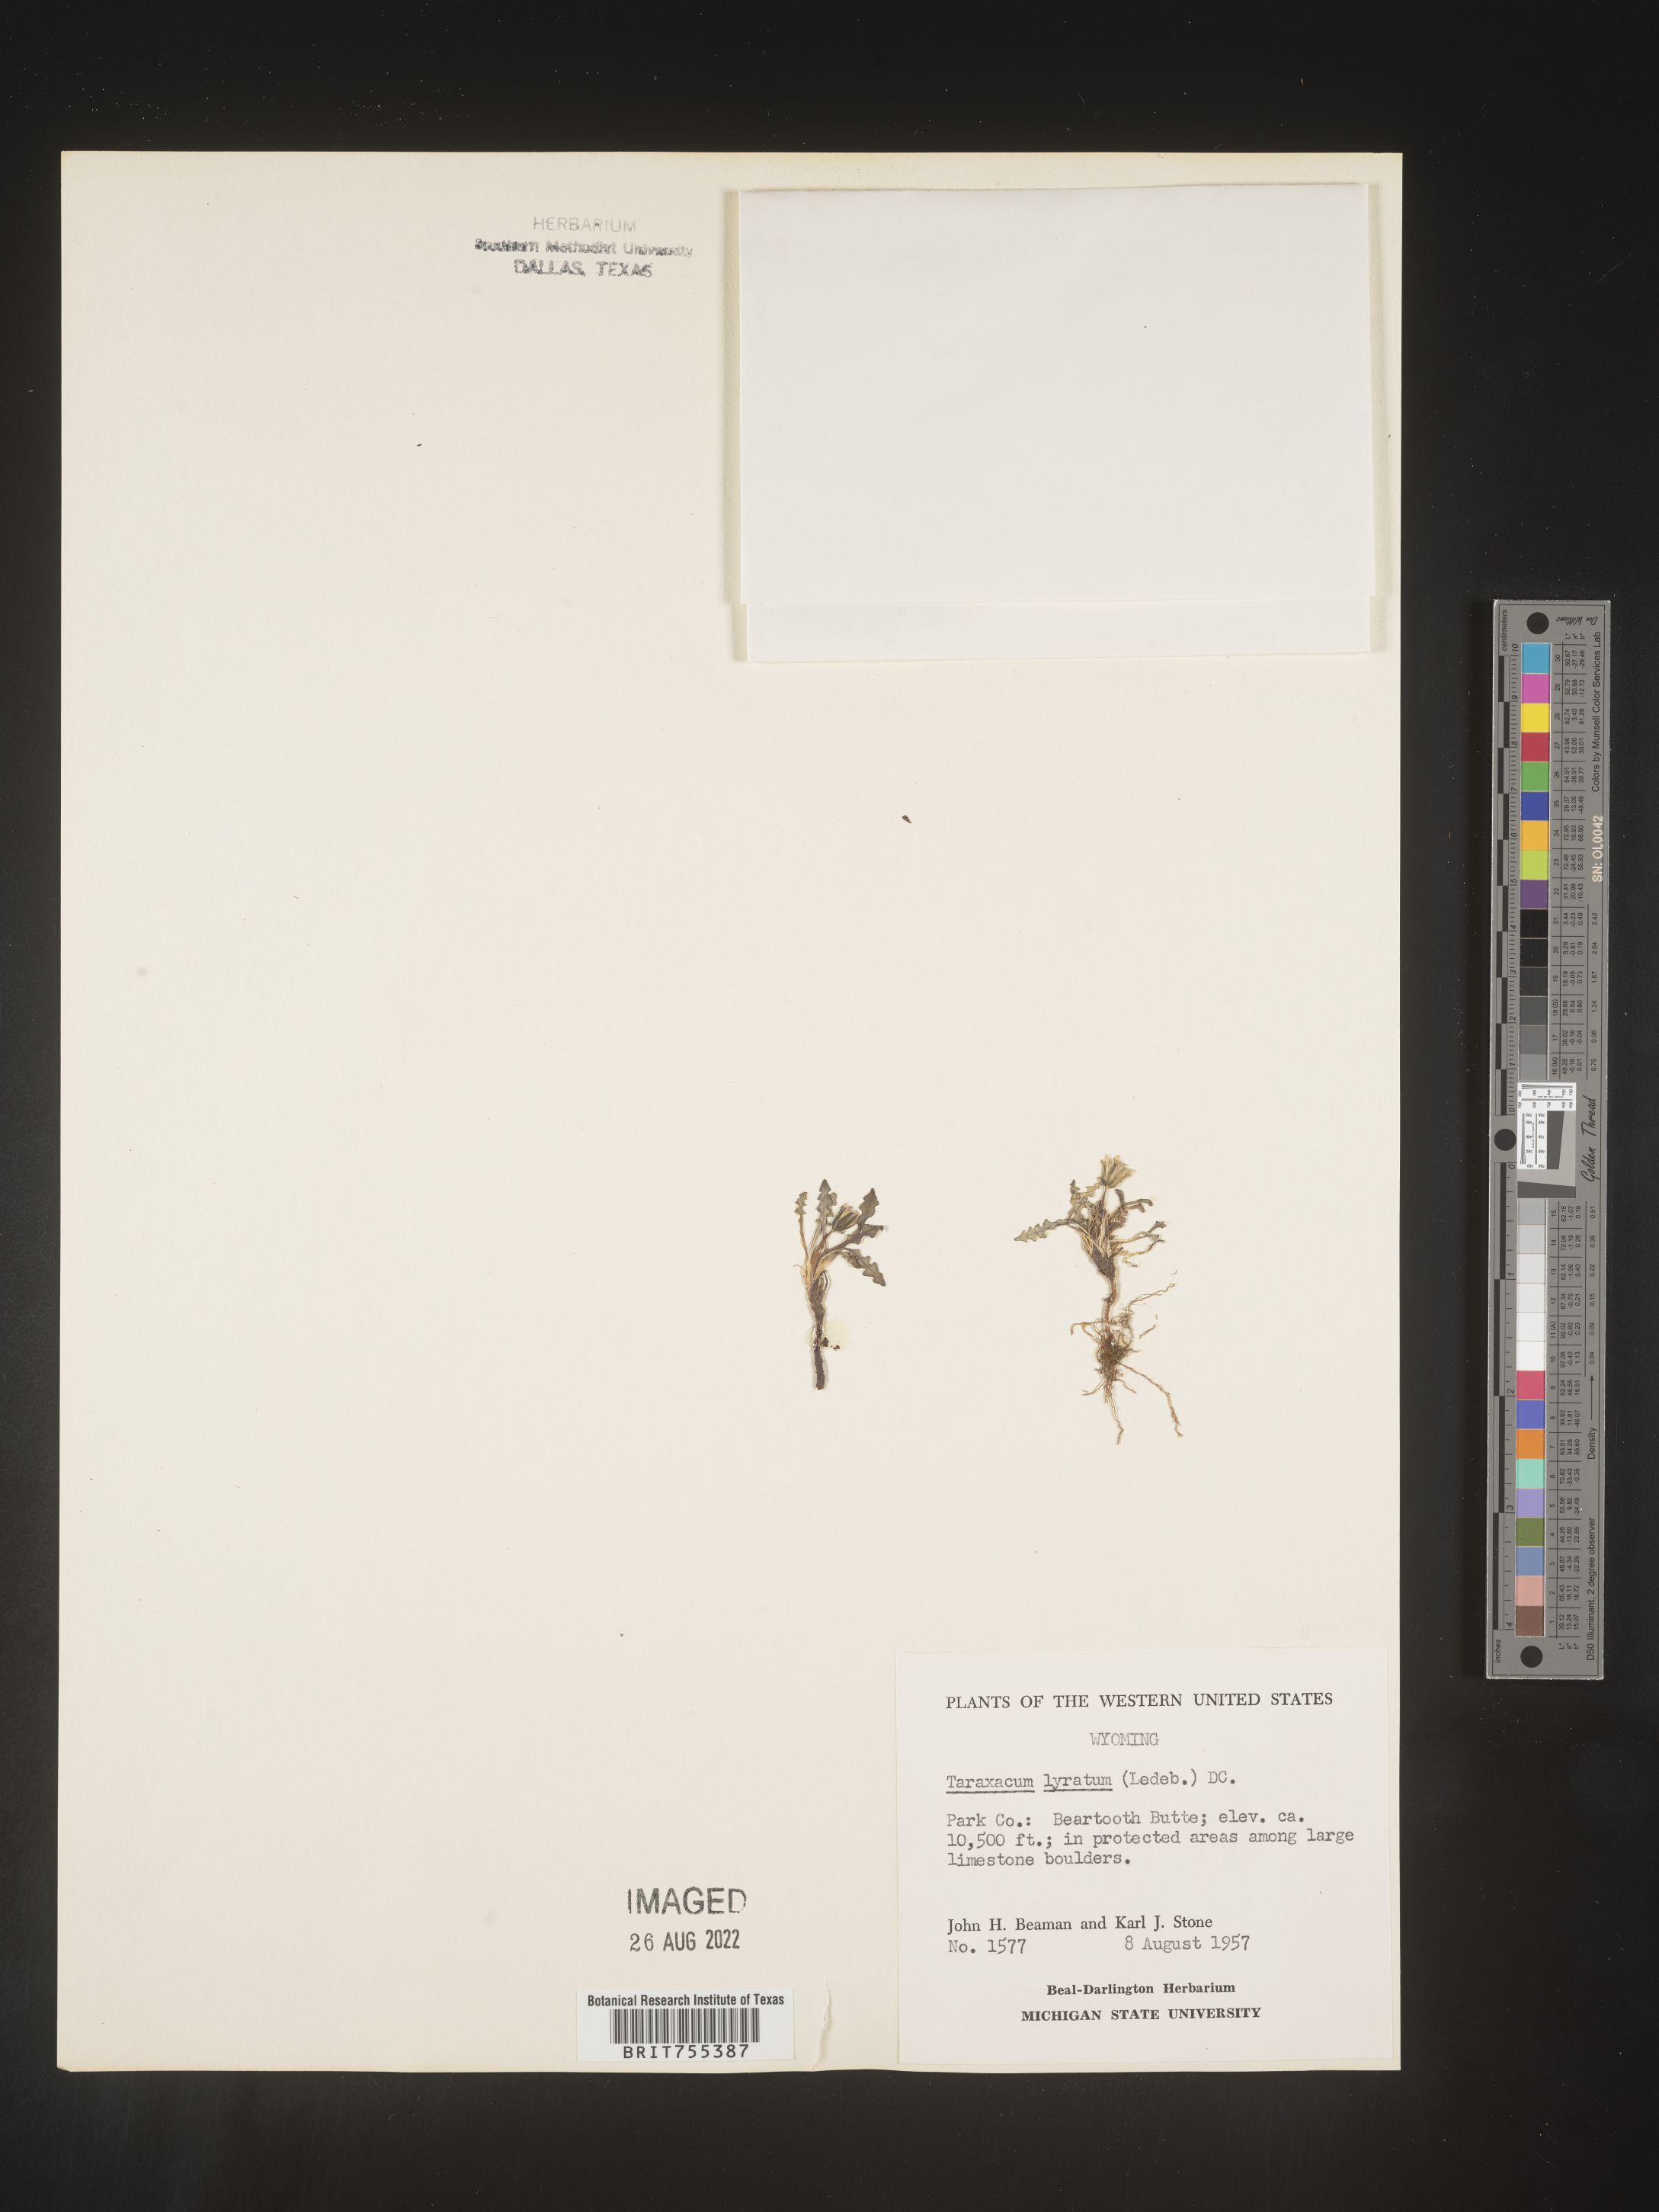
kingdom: Plantae
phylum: Tracheophyta
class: Magnoliopsida
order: Asterales
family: Asteraceae
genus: Taraxacum
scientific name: Taraxacum
